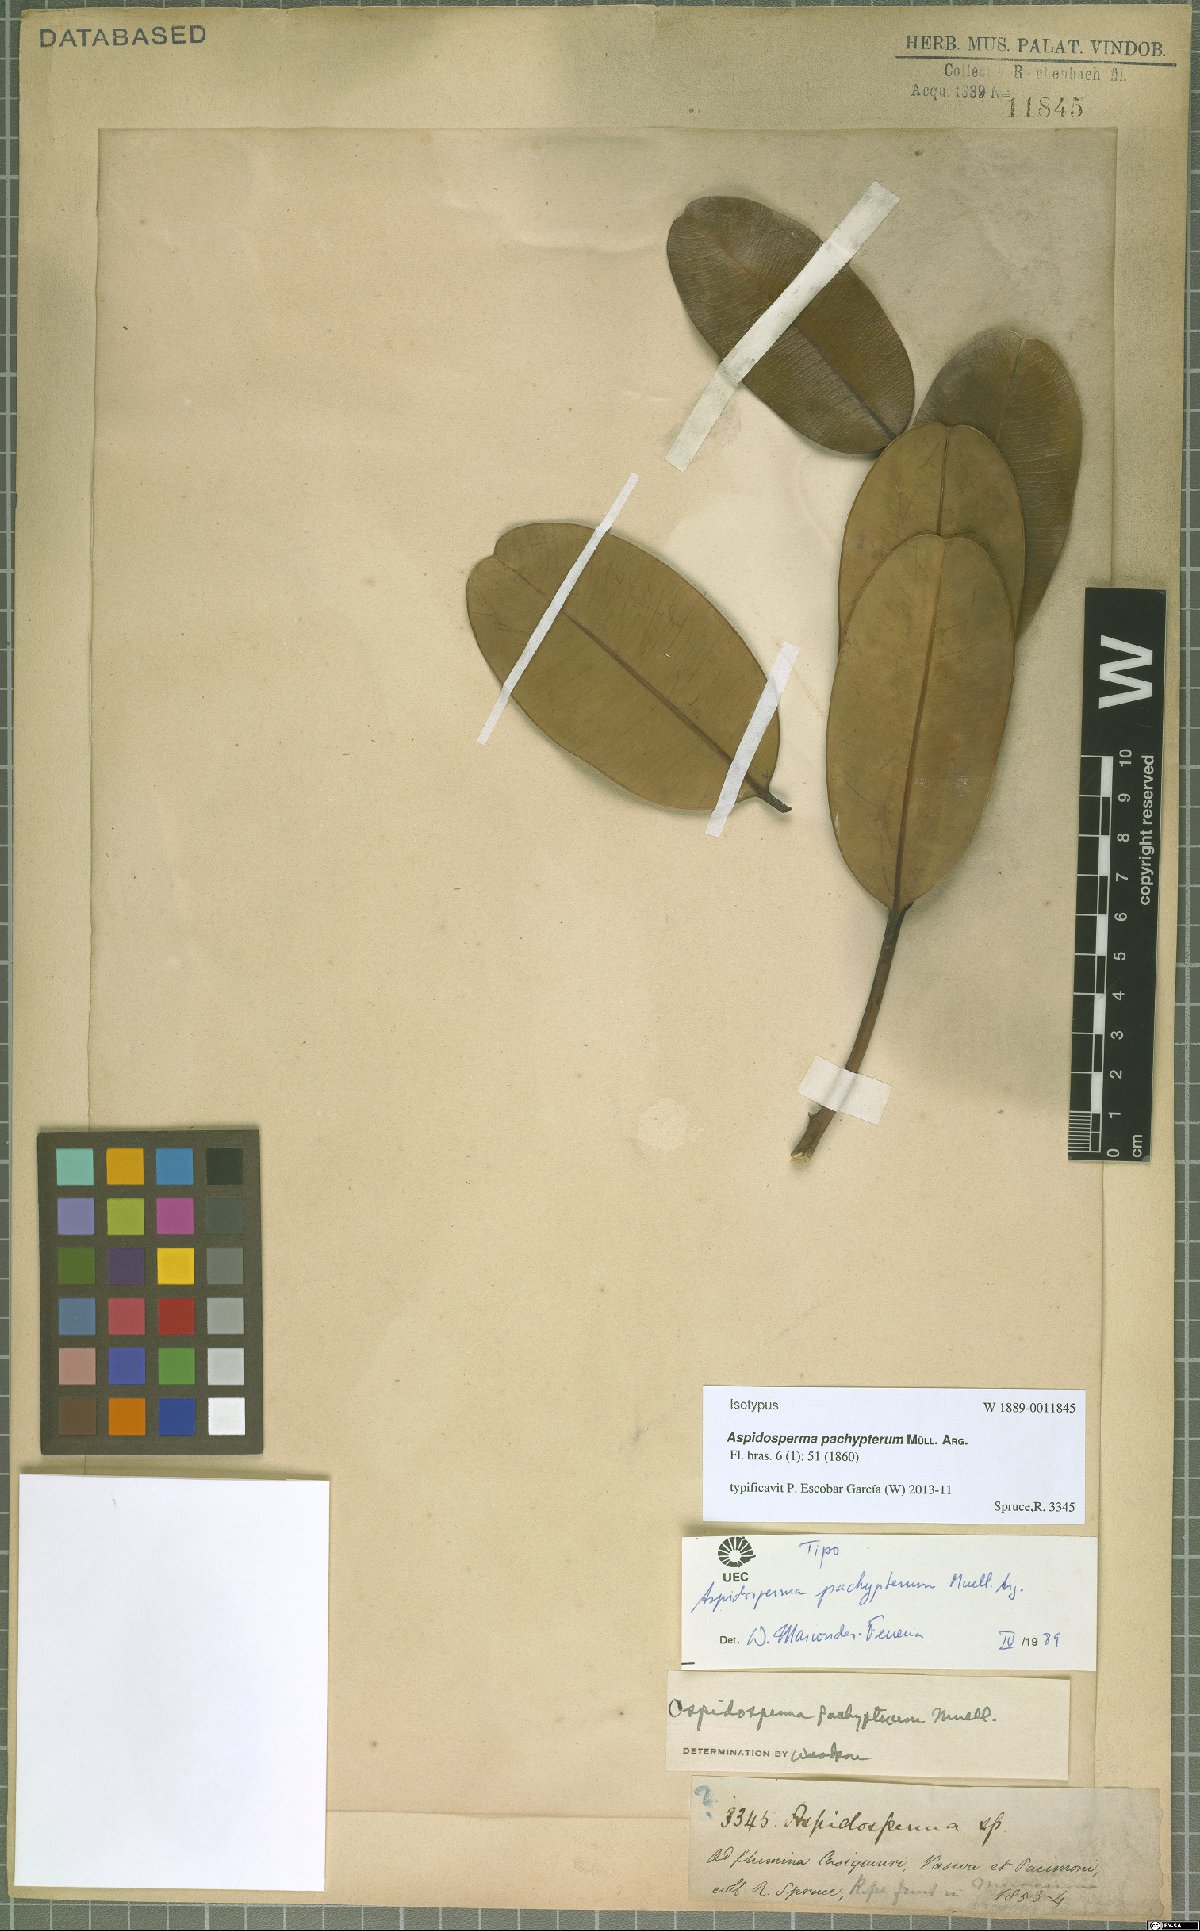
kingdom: Plantae
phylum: Tracheophyta
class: Magnoliopsida
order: Gentianales
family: Apocynaceae
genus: Aspidosperma
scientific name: Aspidosperma pachypterum
